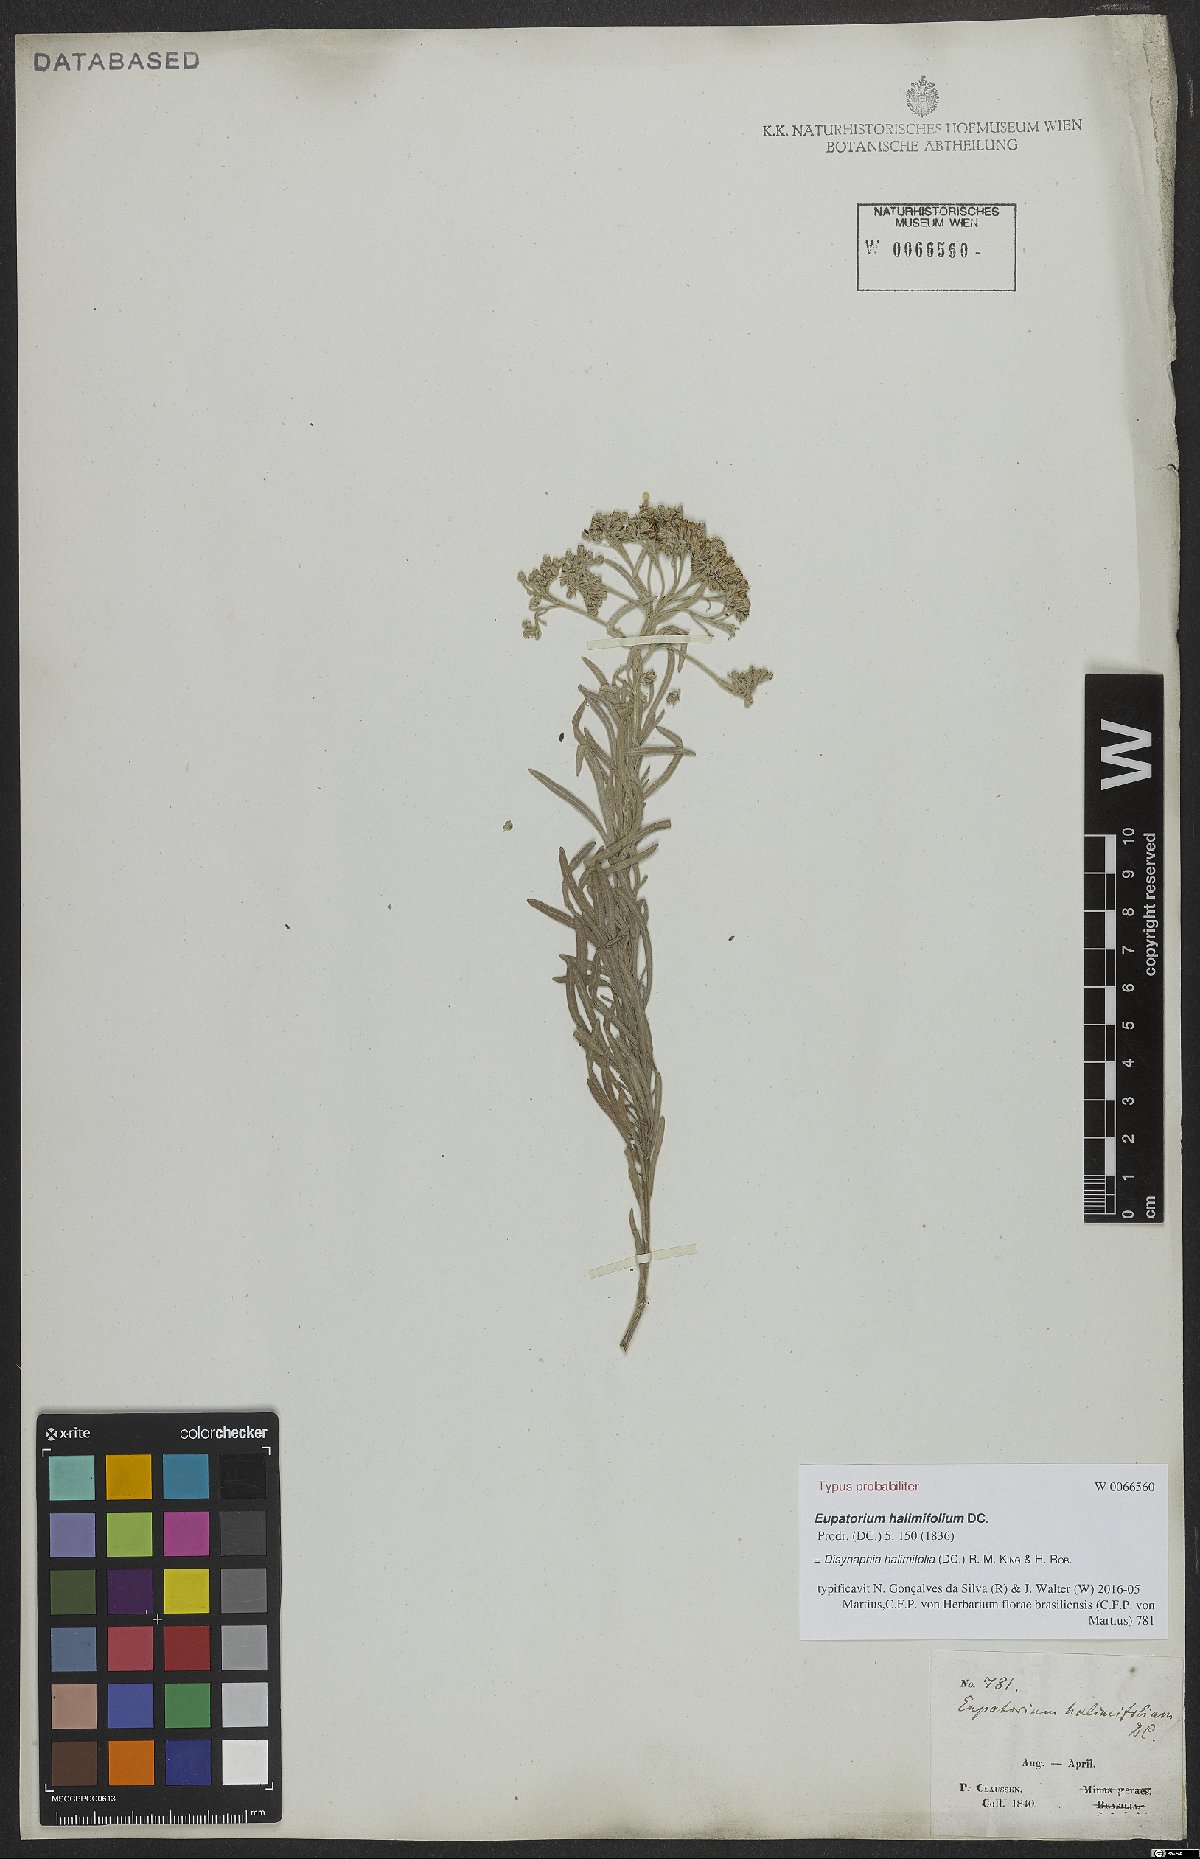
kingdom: Plantae
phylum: Tracheophyta
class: Magnoliopsida
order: Asterales
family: Asteraceae
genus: Disynaphia
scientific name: Disynaphia halimifolia
